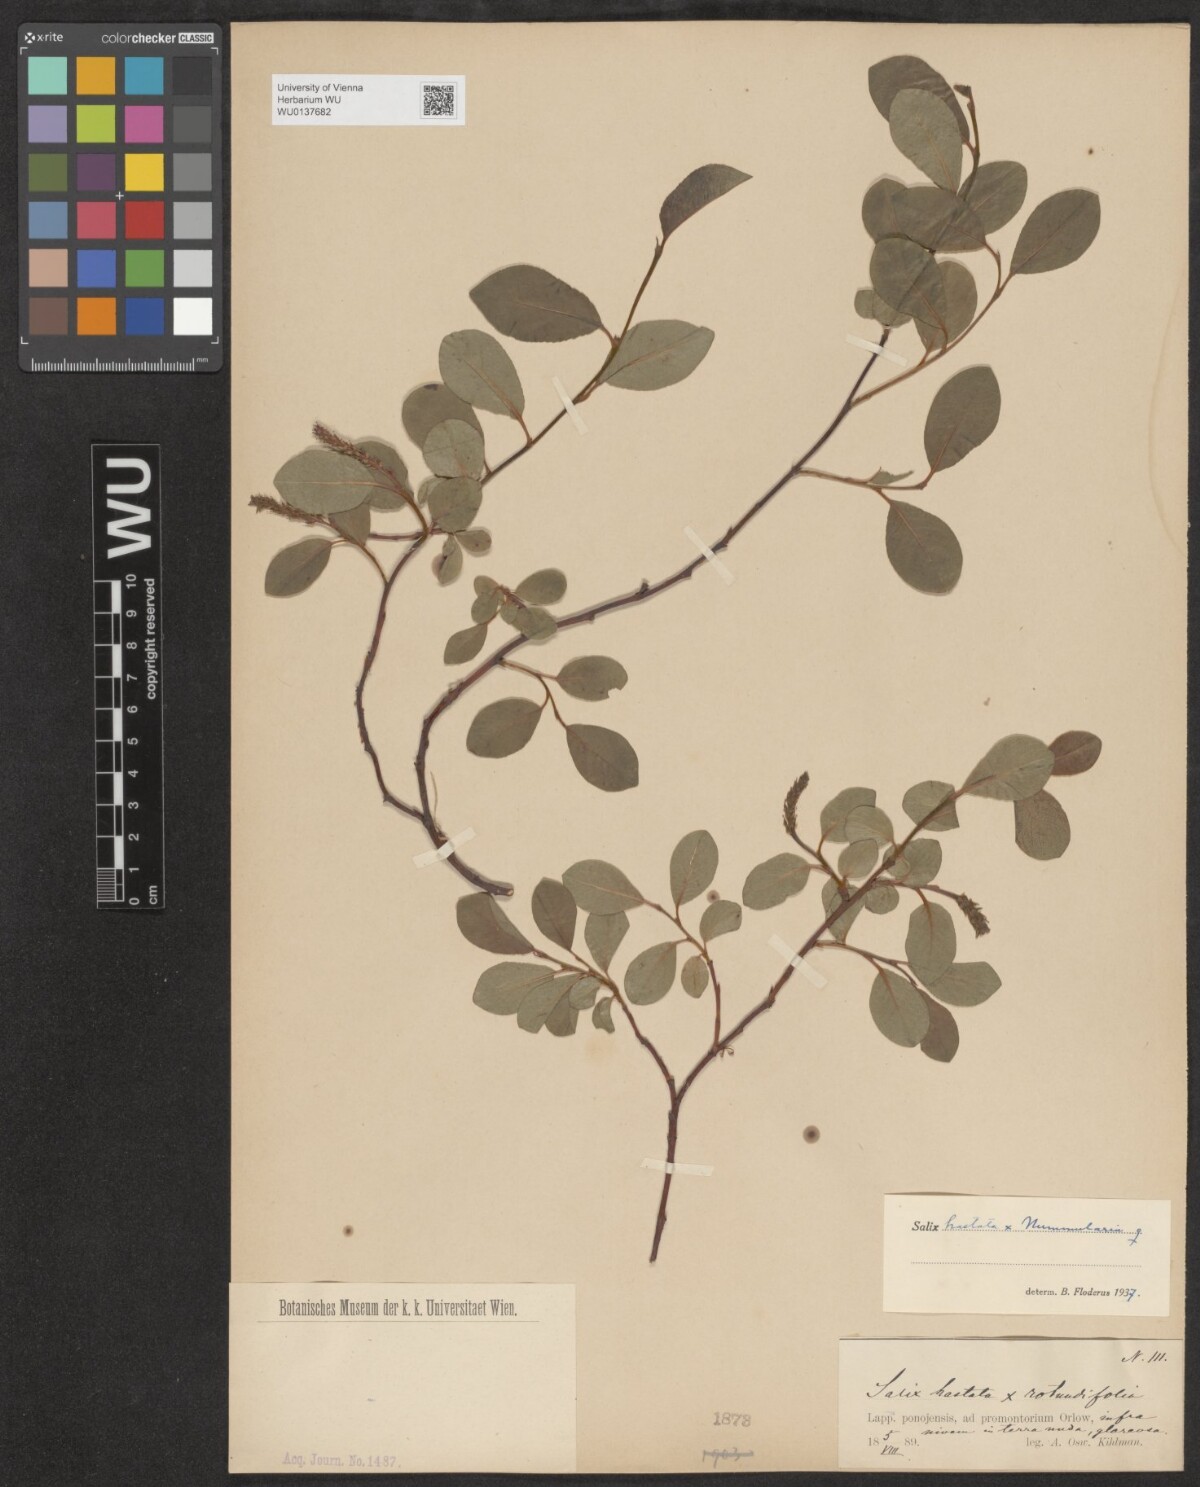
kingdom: Plantae
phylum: Tracheophyta
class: Magnoliopsida
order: Malpighiales
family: Salicaceae
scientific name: Salicaceae
